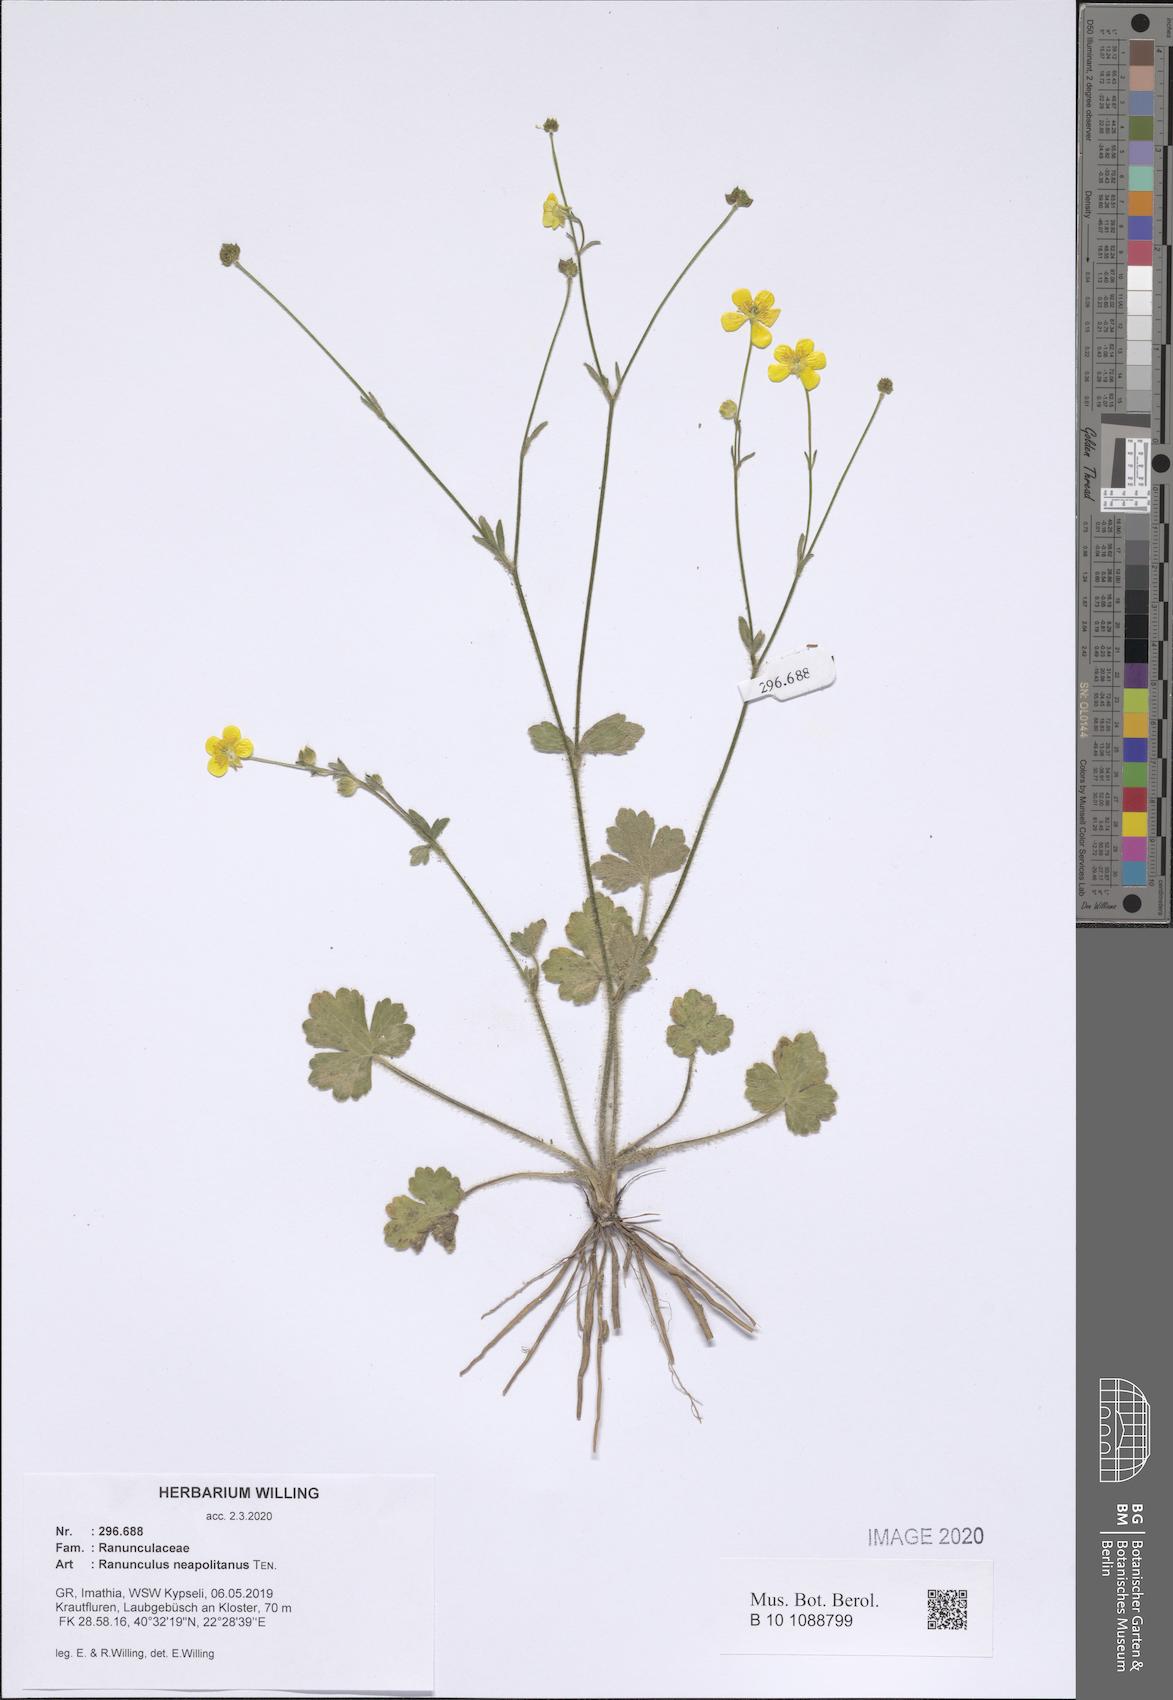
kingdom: Plantae
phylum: Tracheophyta
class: Magnoliopsida
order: Ranunculales
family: Ranunculaceae
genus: Ranunculus
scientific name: Ranunculus neapolitanus
